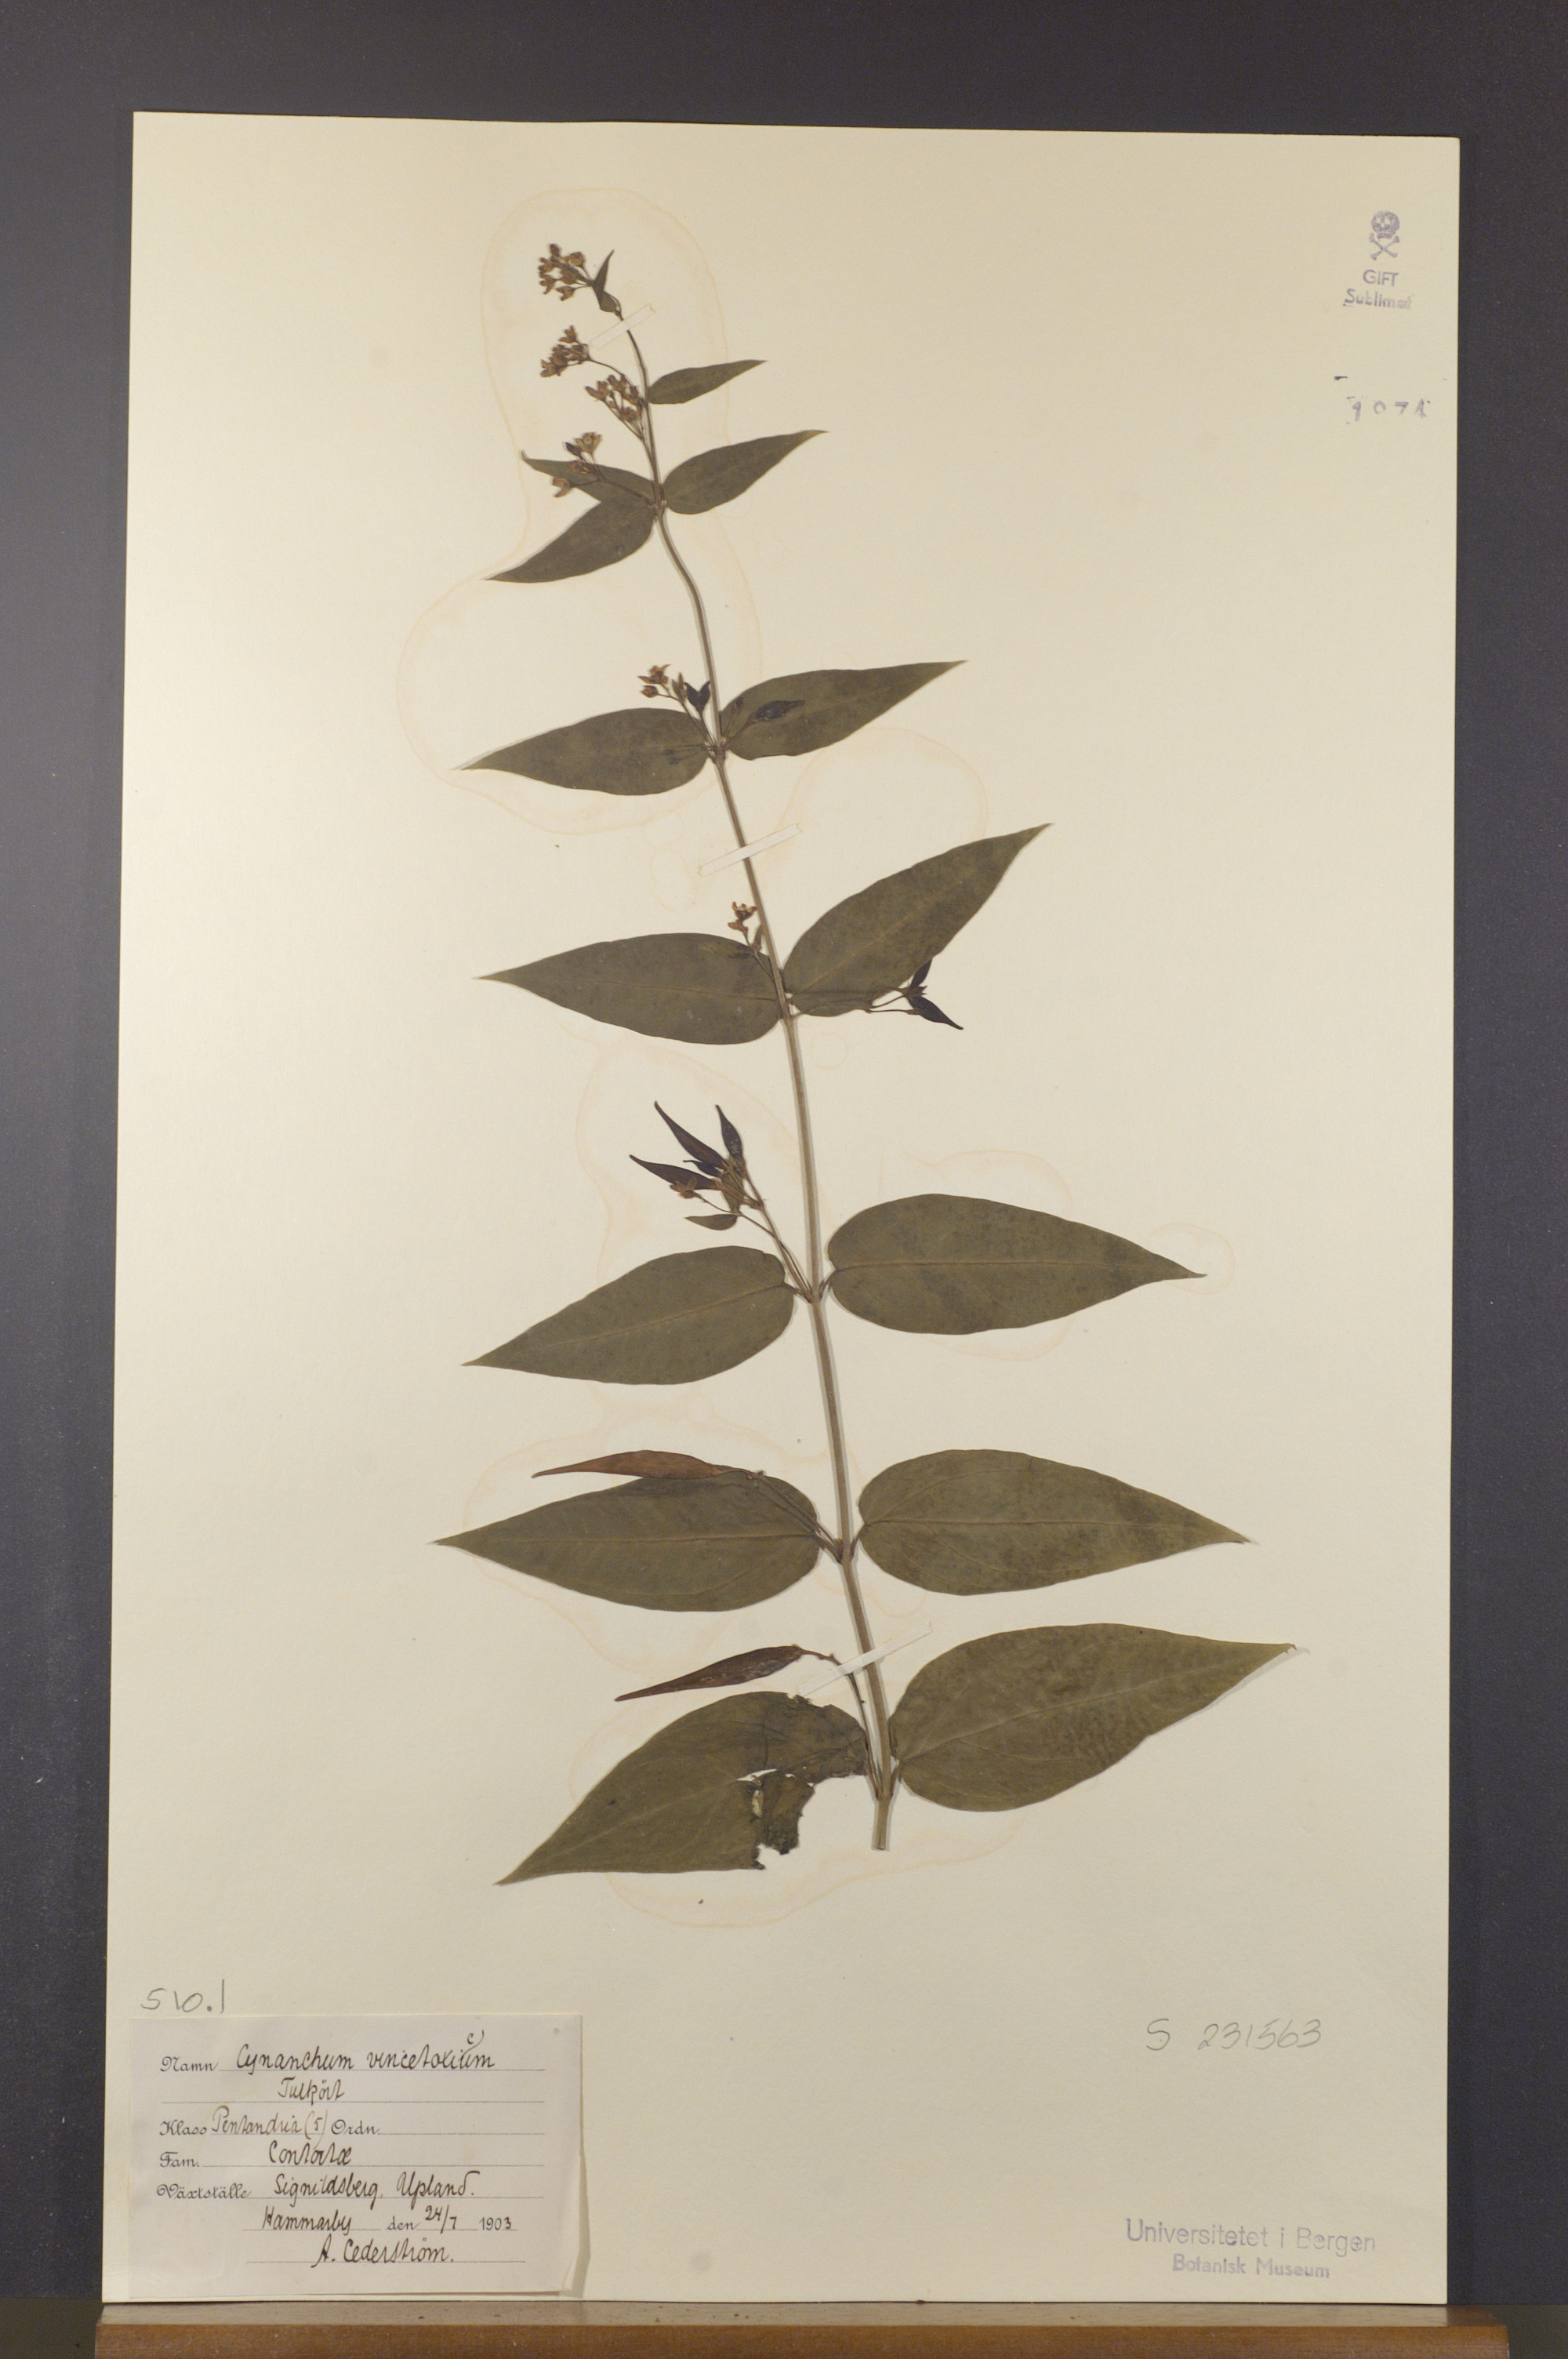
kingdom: Plantae
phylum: Tracheophyta
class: Magnoliopsida
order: Gentianales
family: Apocynaceae
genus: Vincetoxicum
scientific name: Vincetoxicum hirundinaria
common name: White swallowwort
